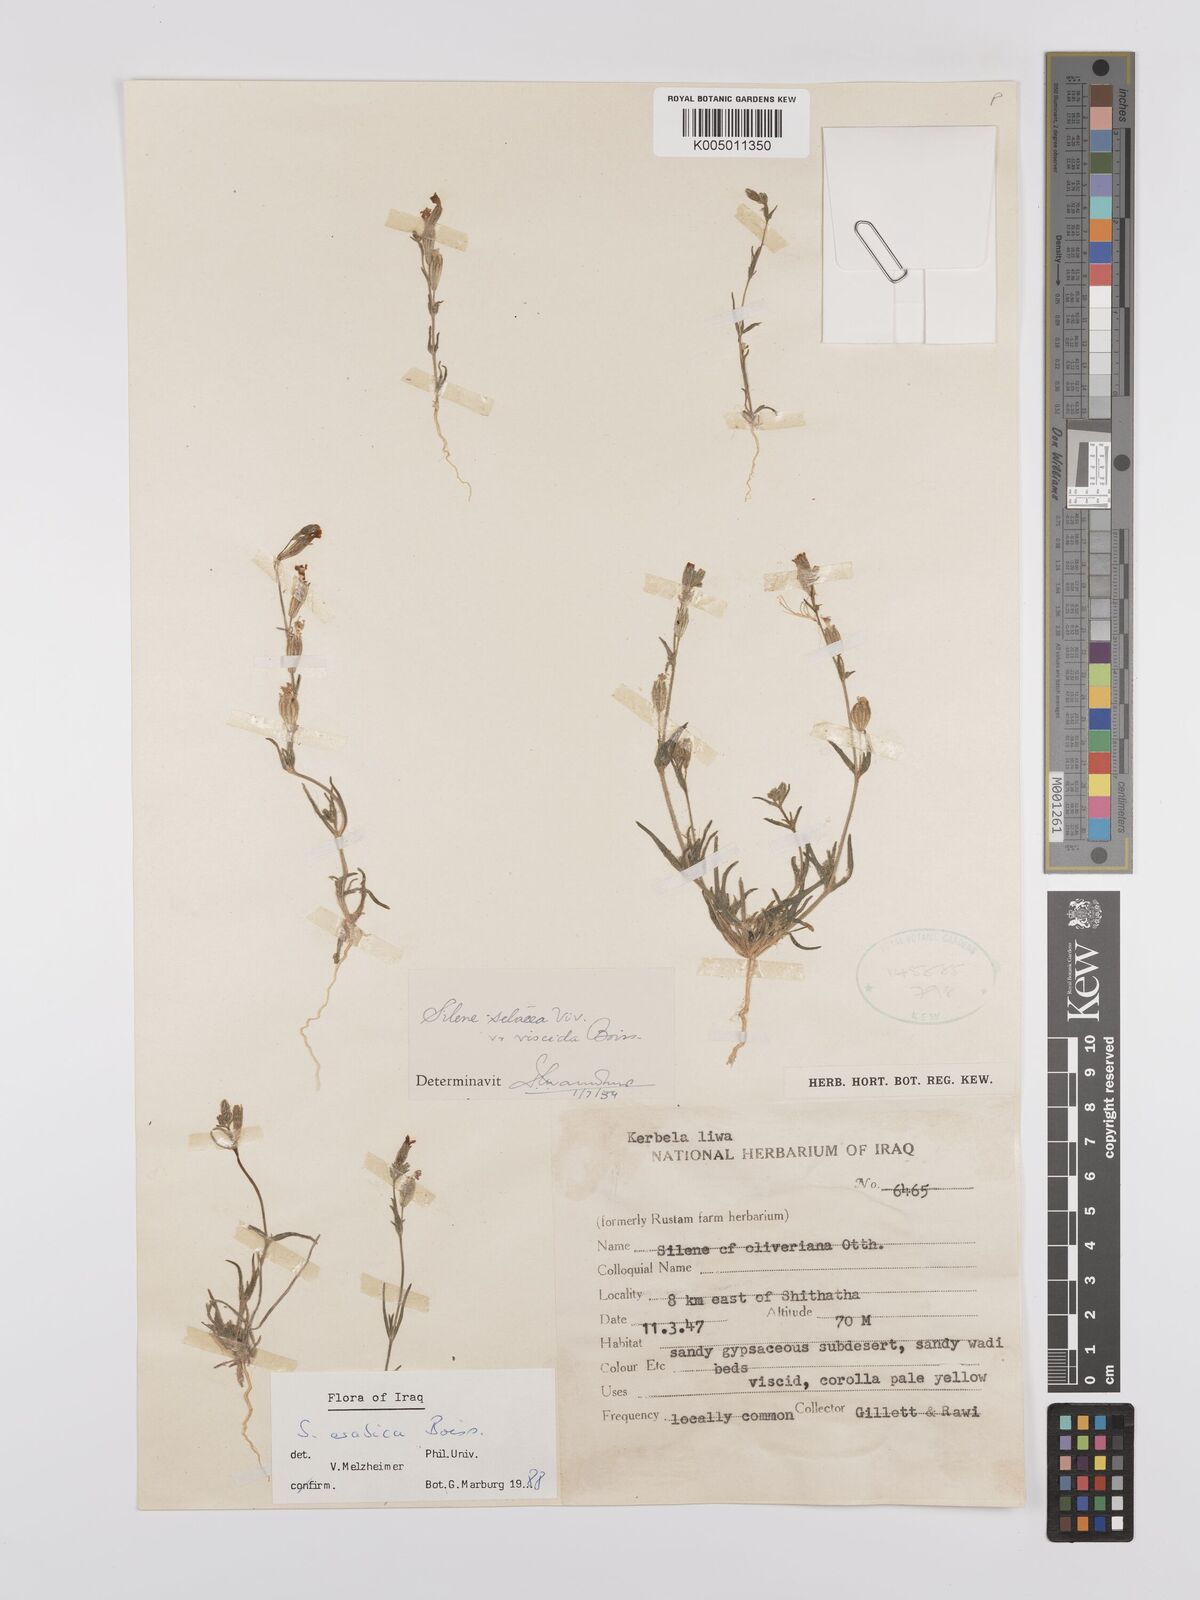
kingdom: Plantae
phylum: Tracheophyta
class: Magnoliopsida
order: Caryophyllales
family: Caryophyllaceae
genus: Silene
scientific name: Silene arabica
